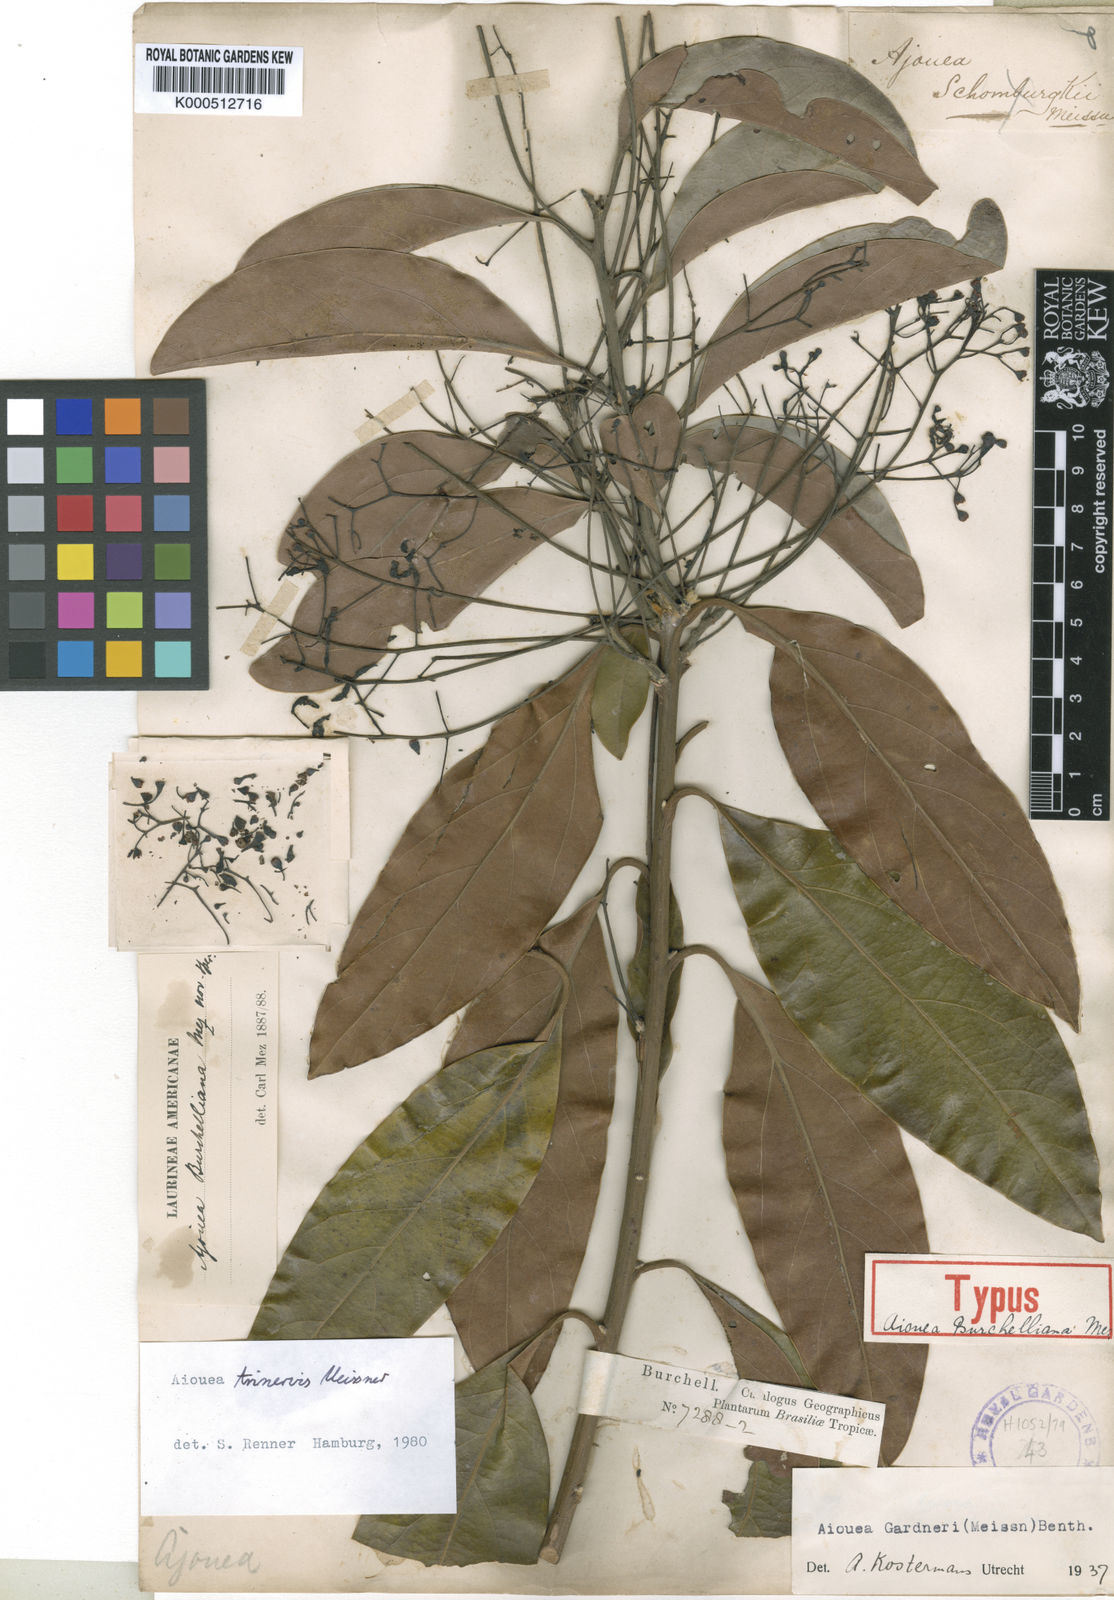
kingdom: Plantae
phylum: Tracheophyta
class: Magnoliopsida
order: Laurales
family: Lauraceae
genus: Aiouea
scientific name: Aiouea trinervis
